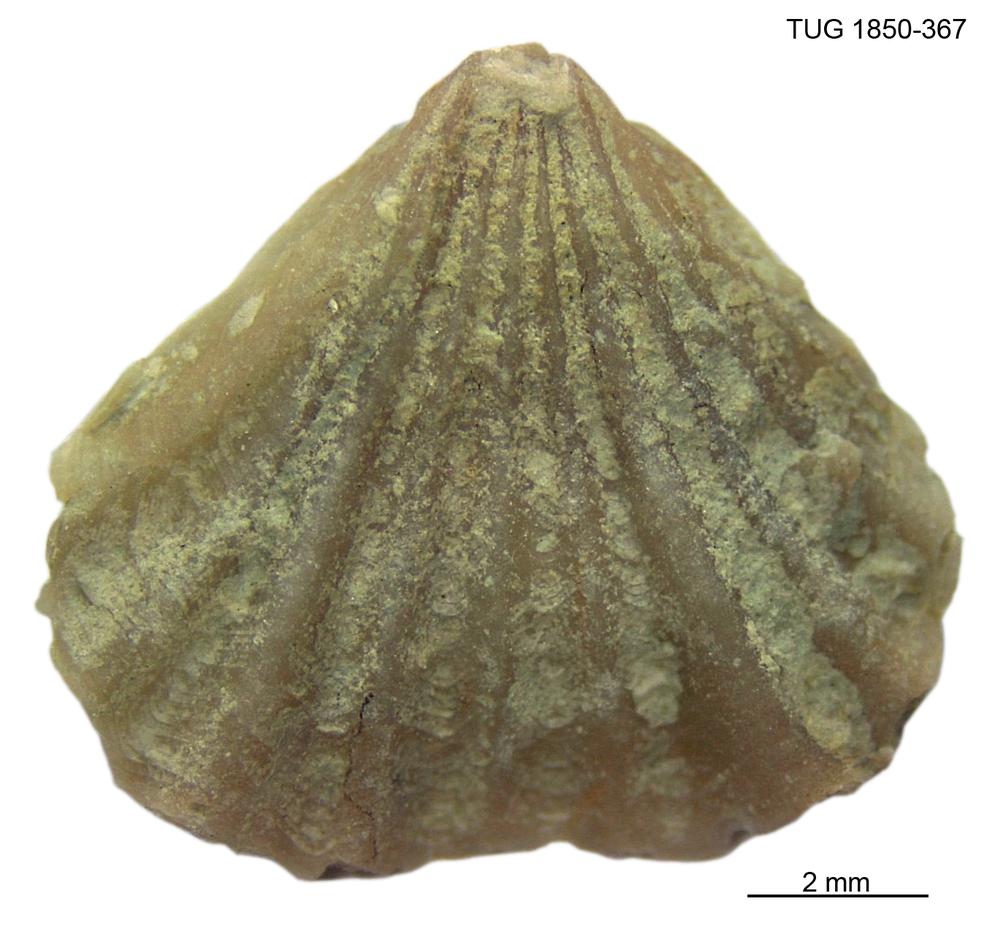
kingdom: Animalia
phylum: Brachiopoda
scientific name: Brachiopoda
